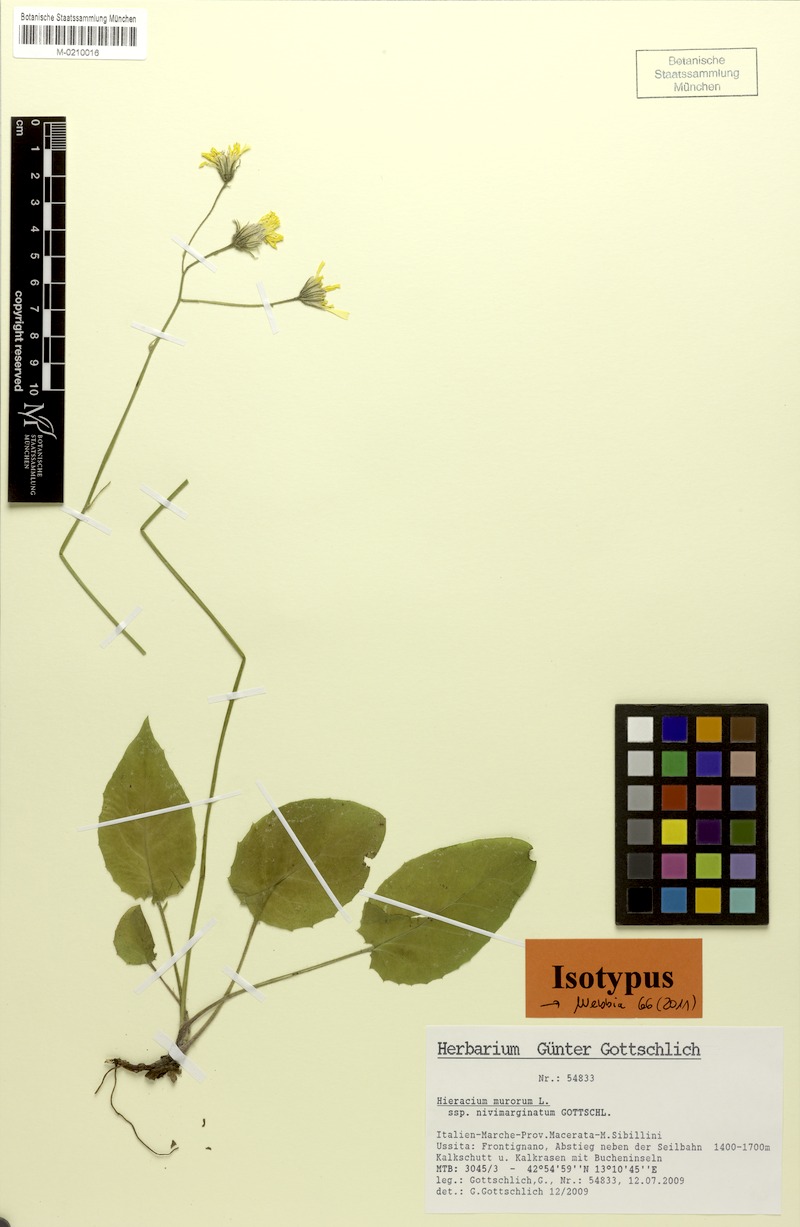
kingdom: Plantae
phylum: Tracheophyta
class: Magnoliopsida
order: Asterales
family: Asteraceae
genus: Hieracium
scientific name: Hieracium murorum
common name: Wall hawkweed
